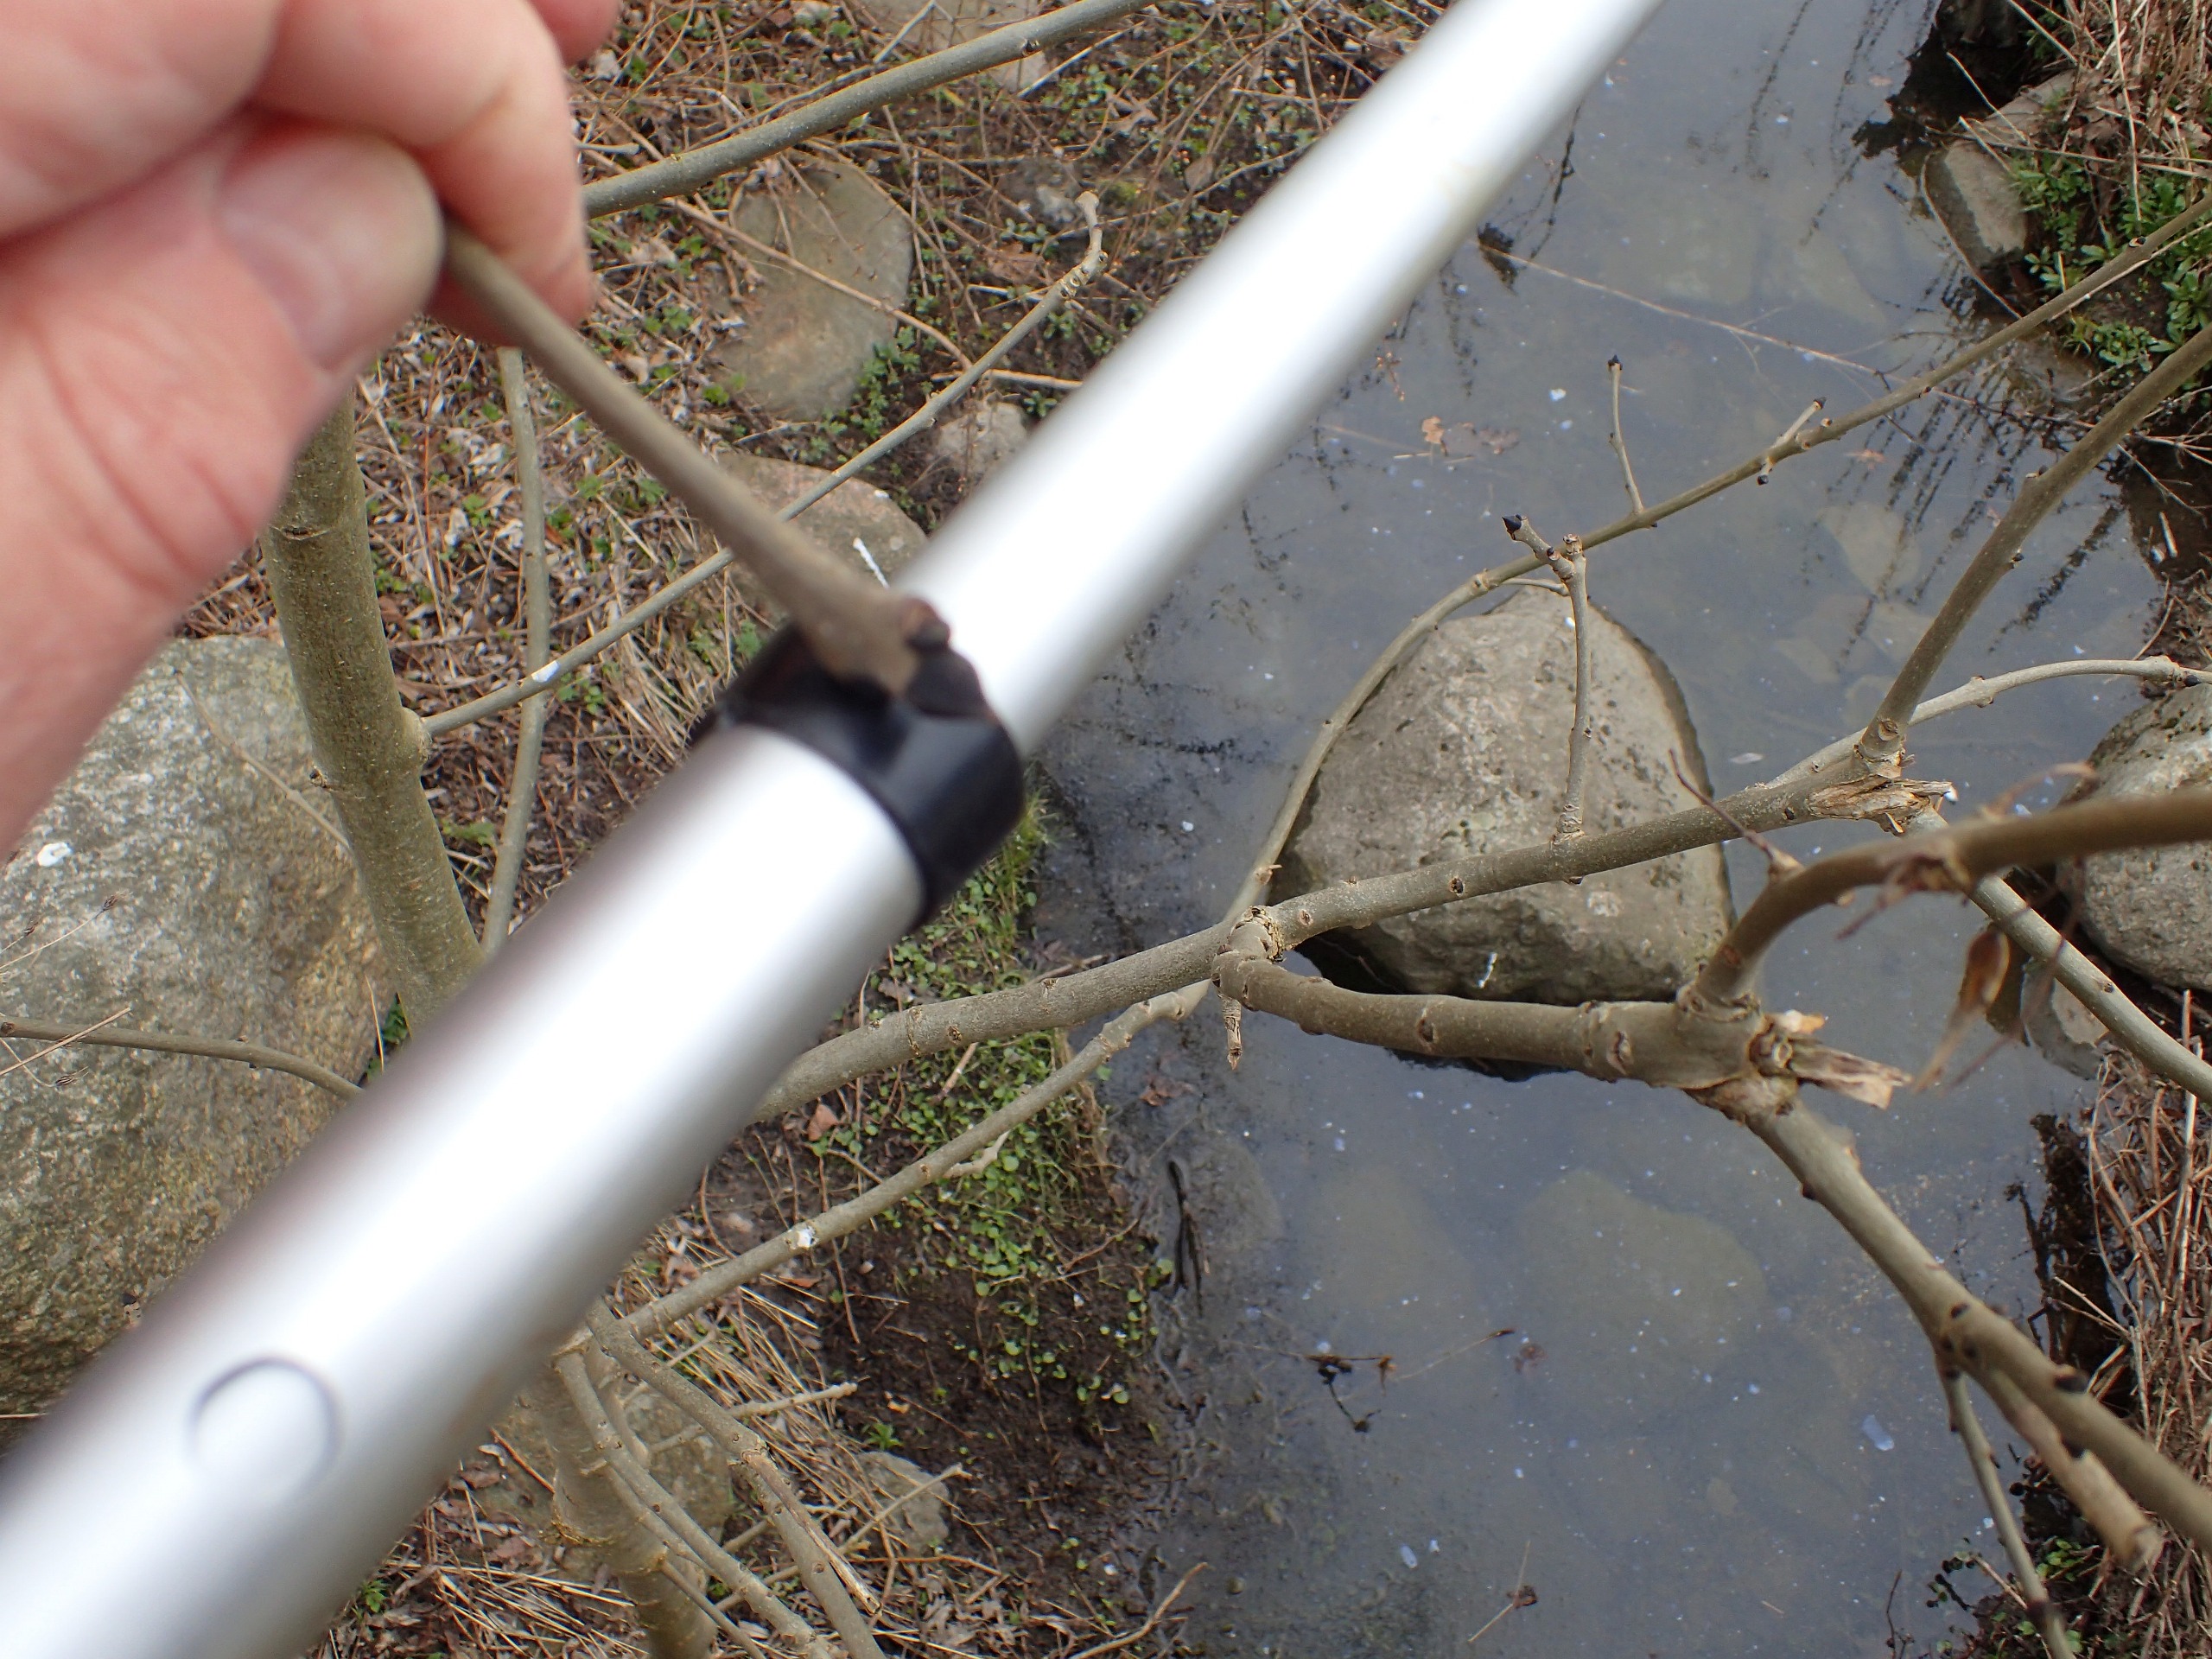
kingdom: Plantae
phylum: Tracheophyta
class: Magnoliopsida
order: Lamiales
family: Oleaceae
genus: Fraxinus
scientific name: Fraxinus excelsior
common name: Ask
